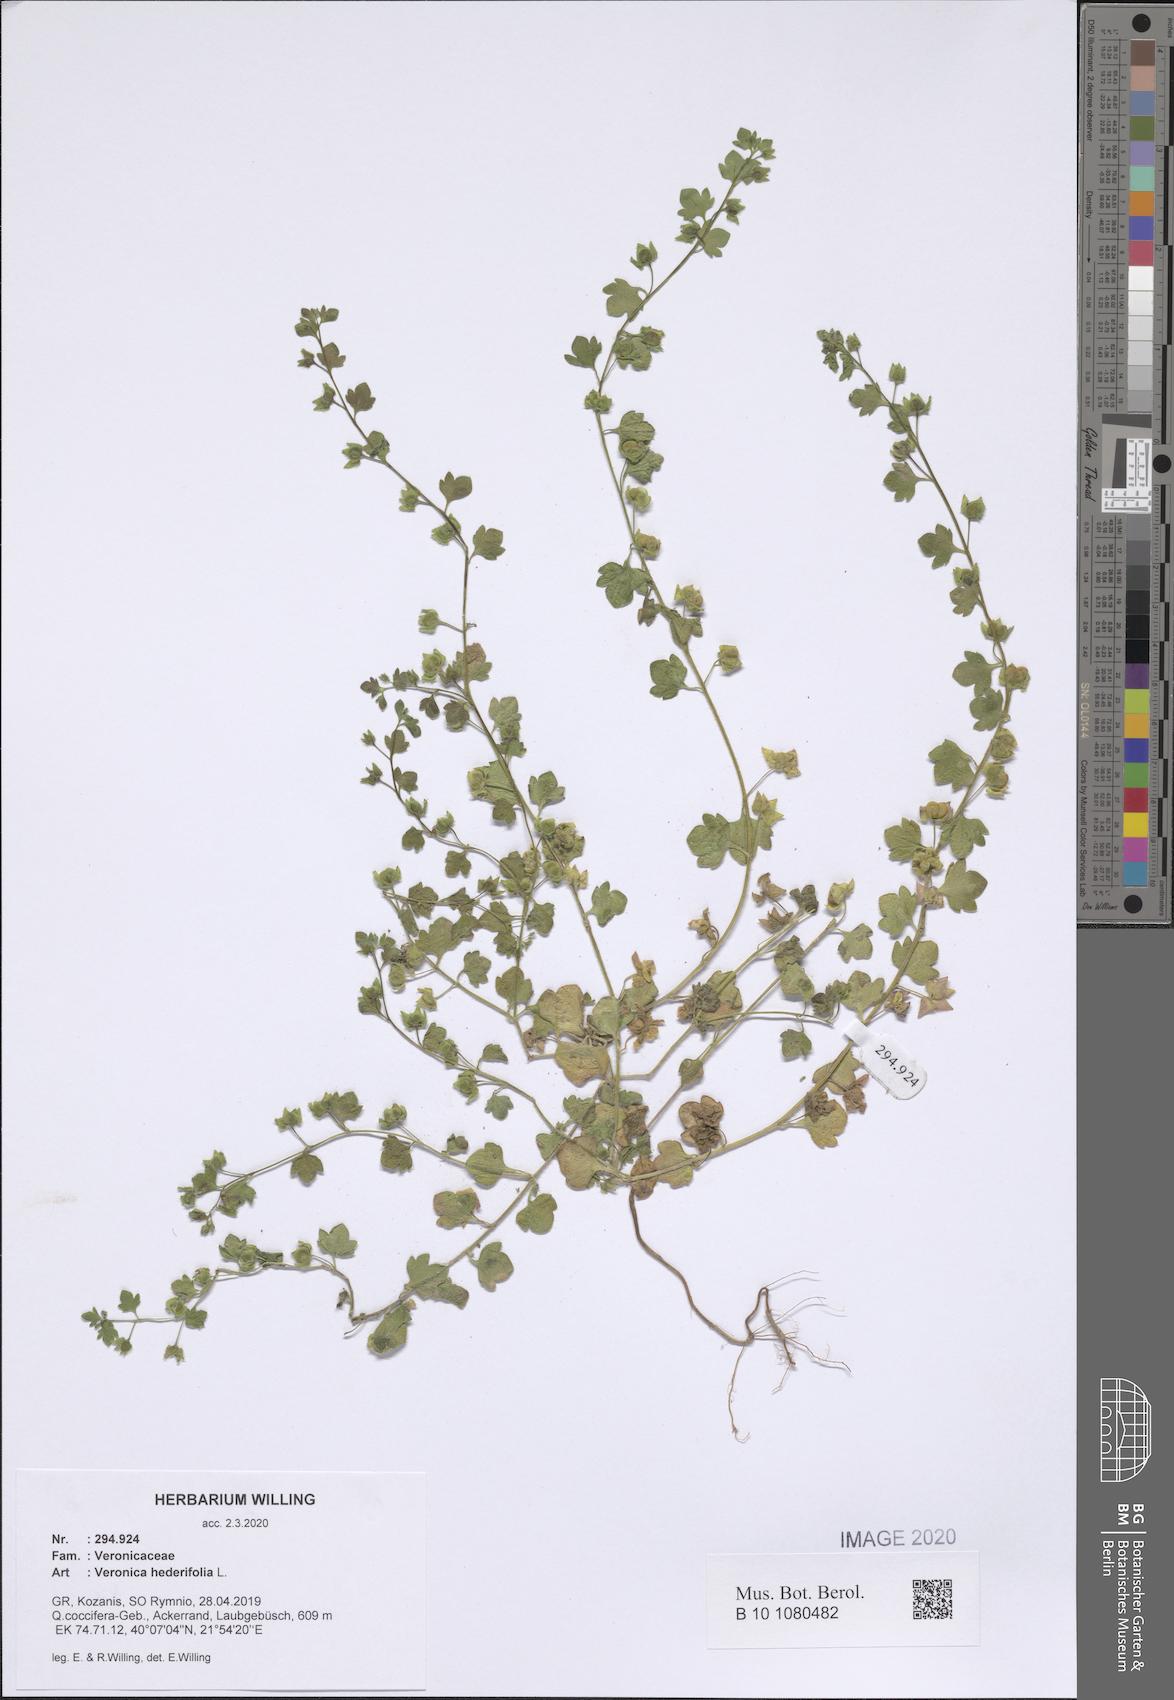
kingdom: Plantae
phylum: Tracheophyta
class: Magnoliopsida
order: Lamiales
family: Plantaginaceae
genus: Veronica
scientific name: Veronica hederifolia
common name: Ivy-leaved speedwell
